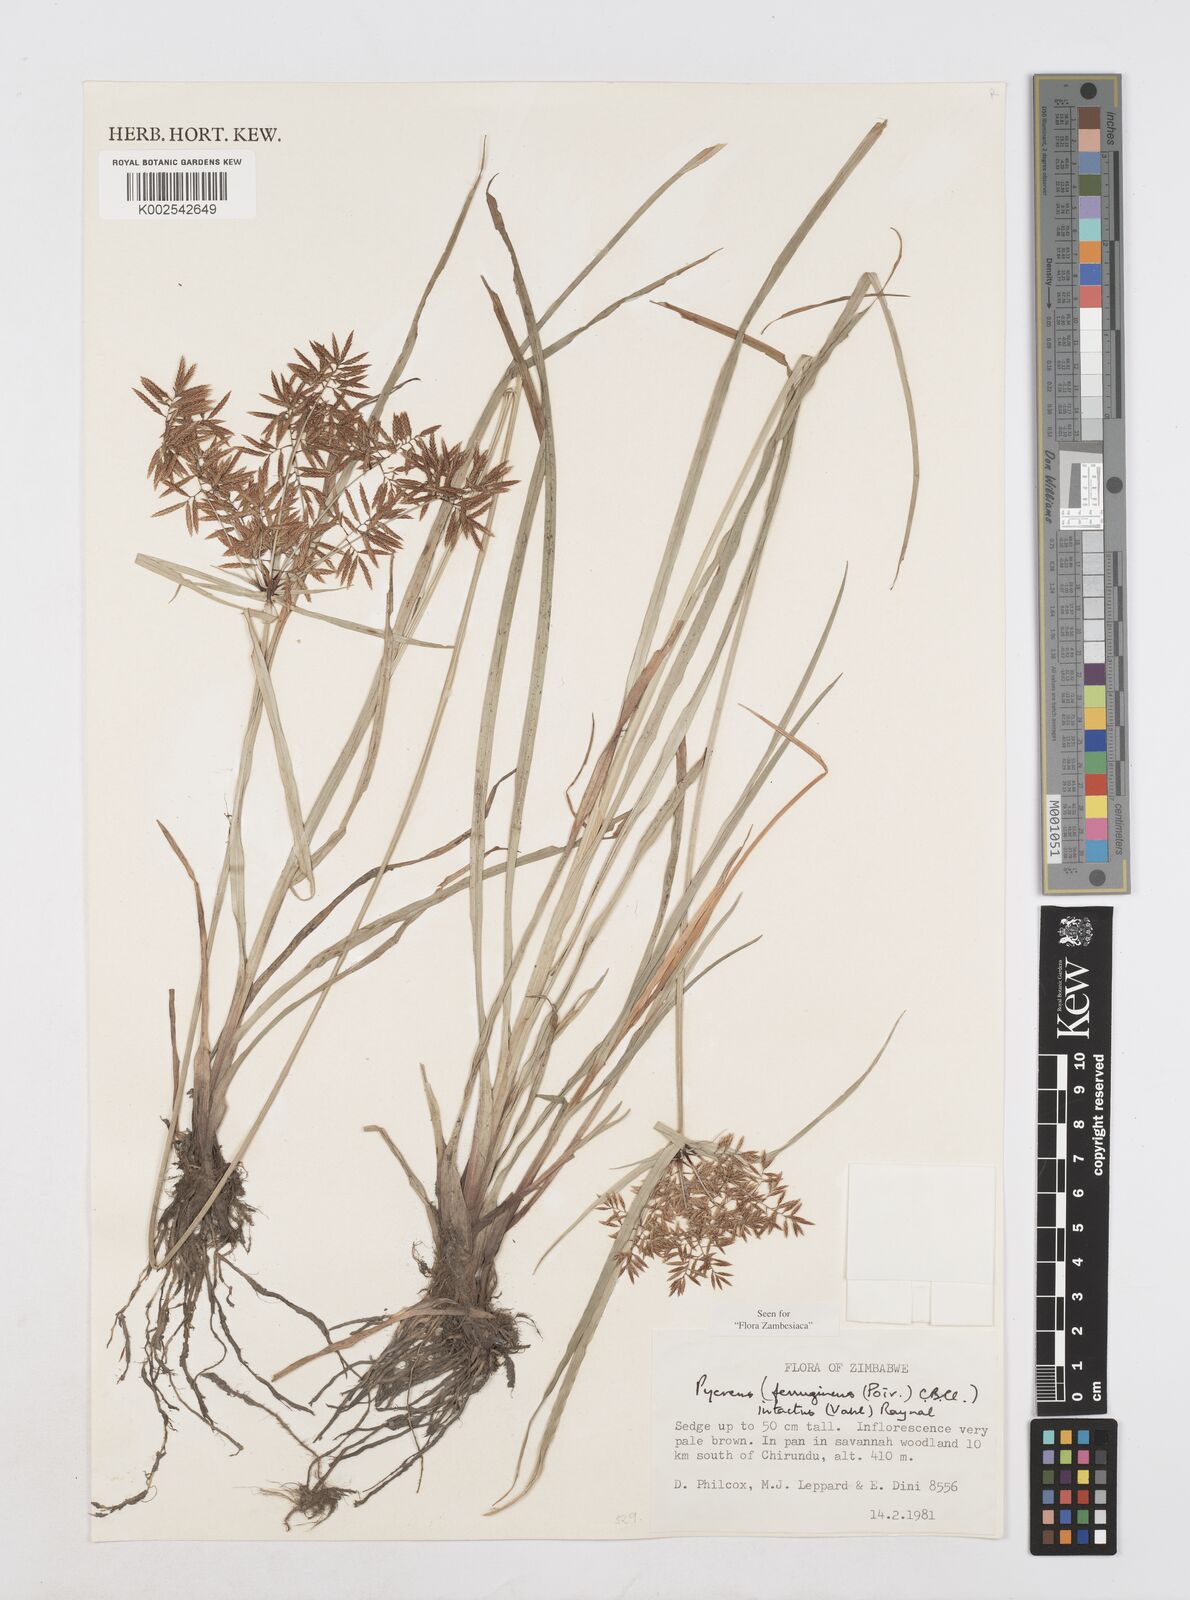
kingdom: Plantae
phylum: Tracheophyta
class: Liliopsida
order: Poales
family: Cyperaceae
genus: Cyperus
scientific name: Cyperus intactus
